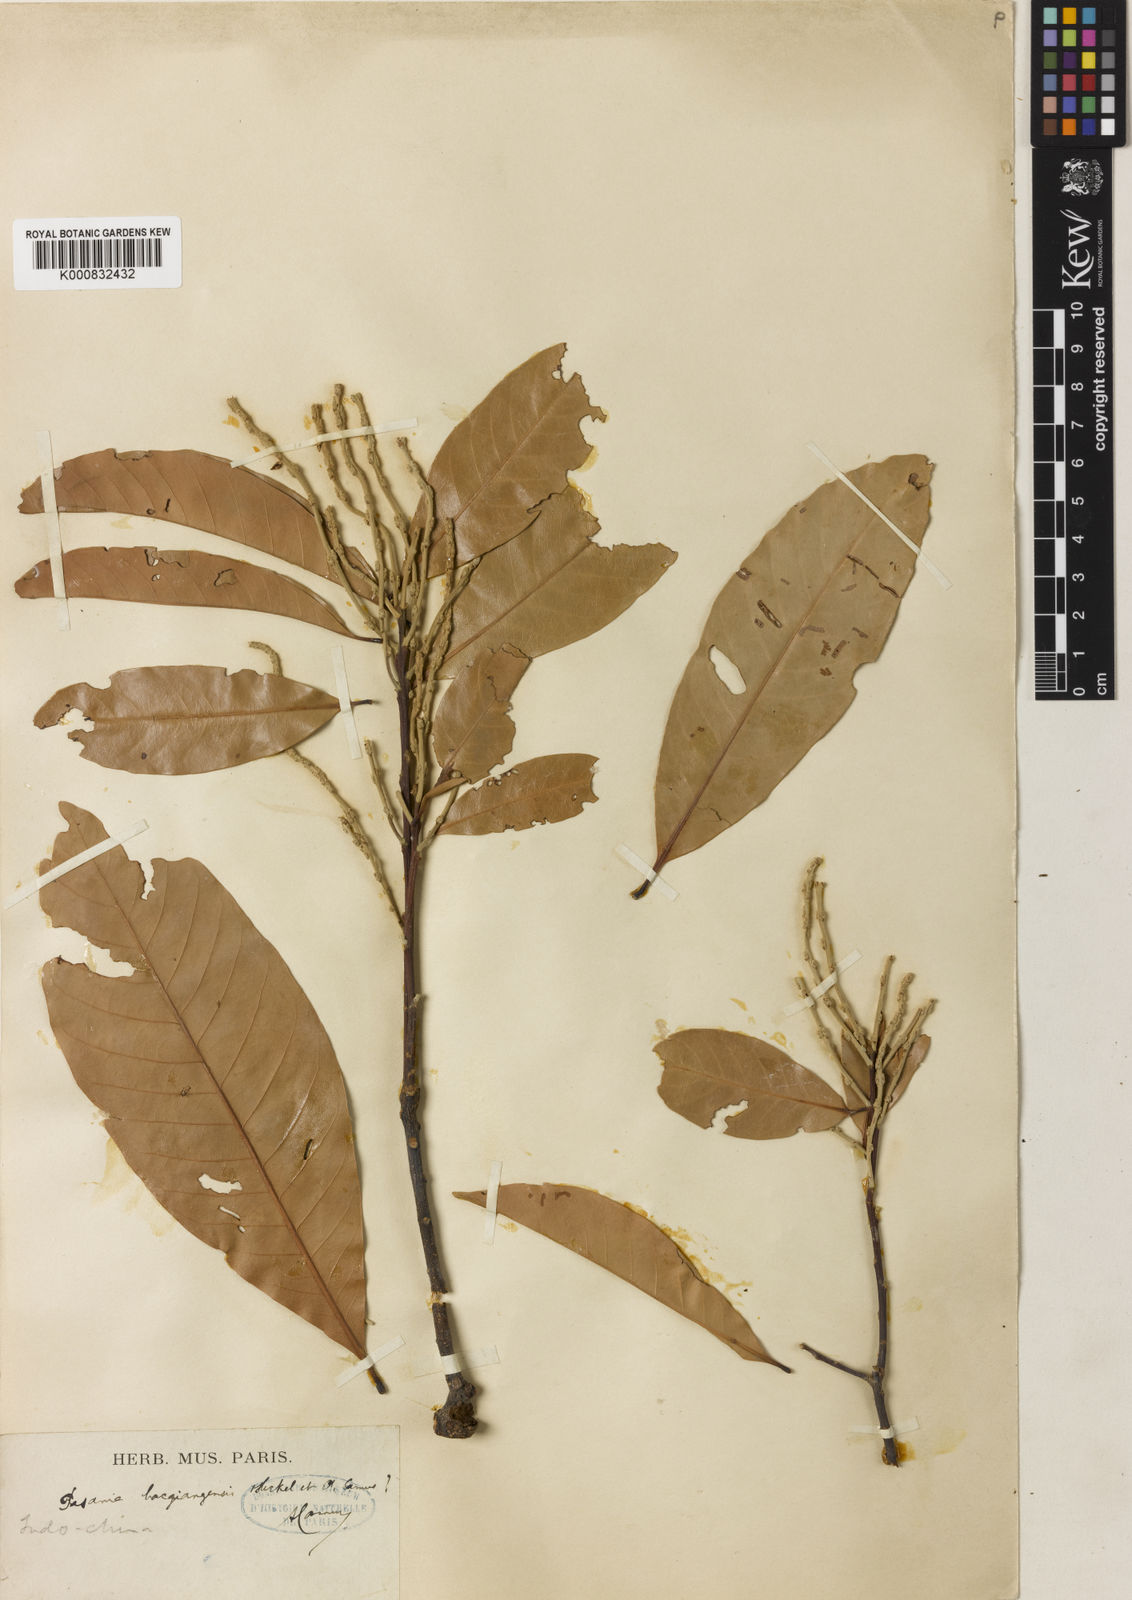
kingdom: Plantae
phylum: Tracheophyta
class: Magnoliopsida
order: Fagales
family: Fagaceae
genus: Lithocarpus
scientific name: Lithocarpus bacgiangensis
